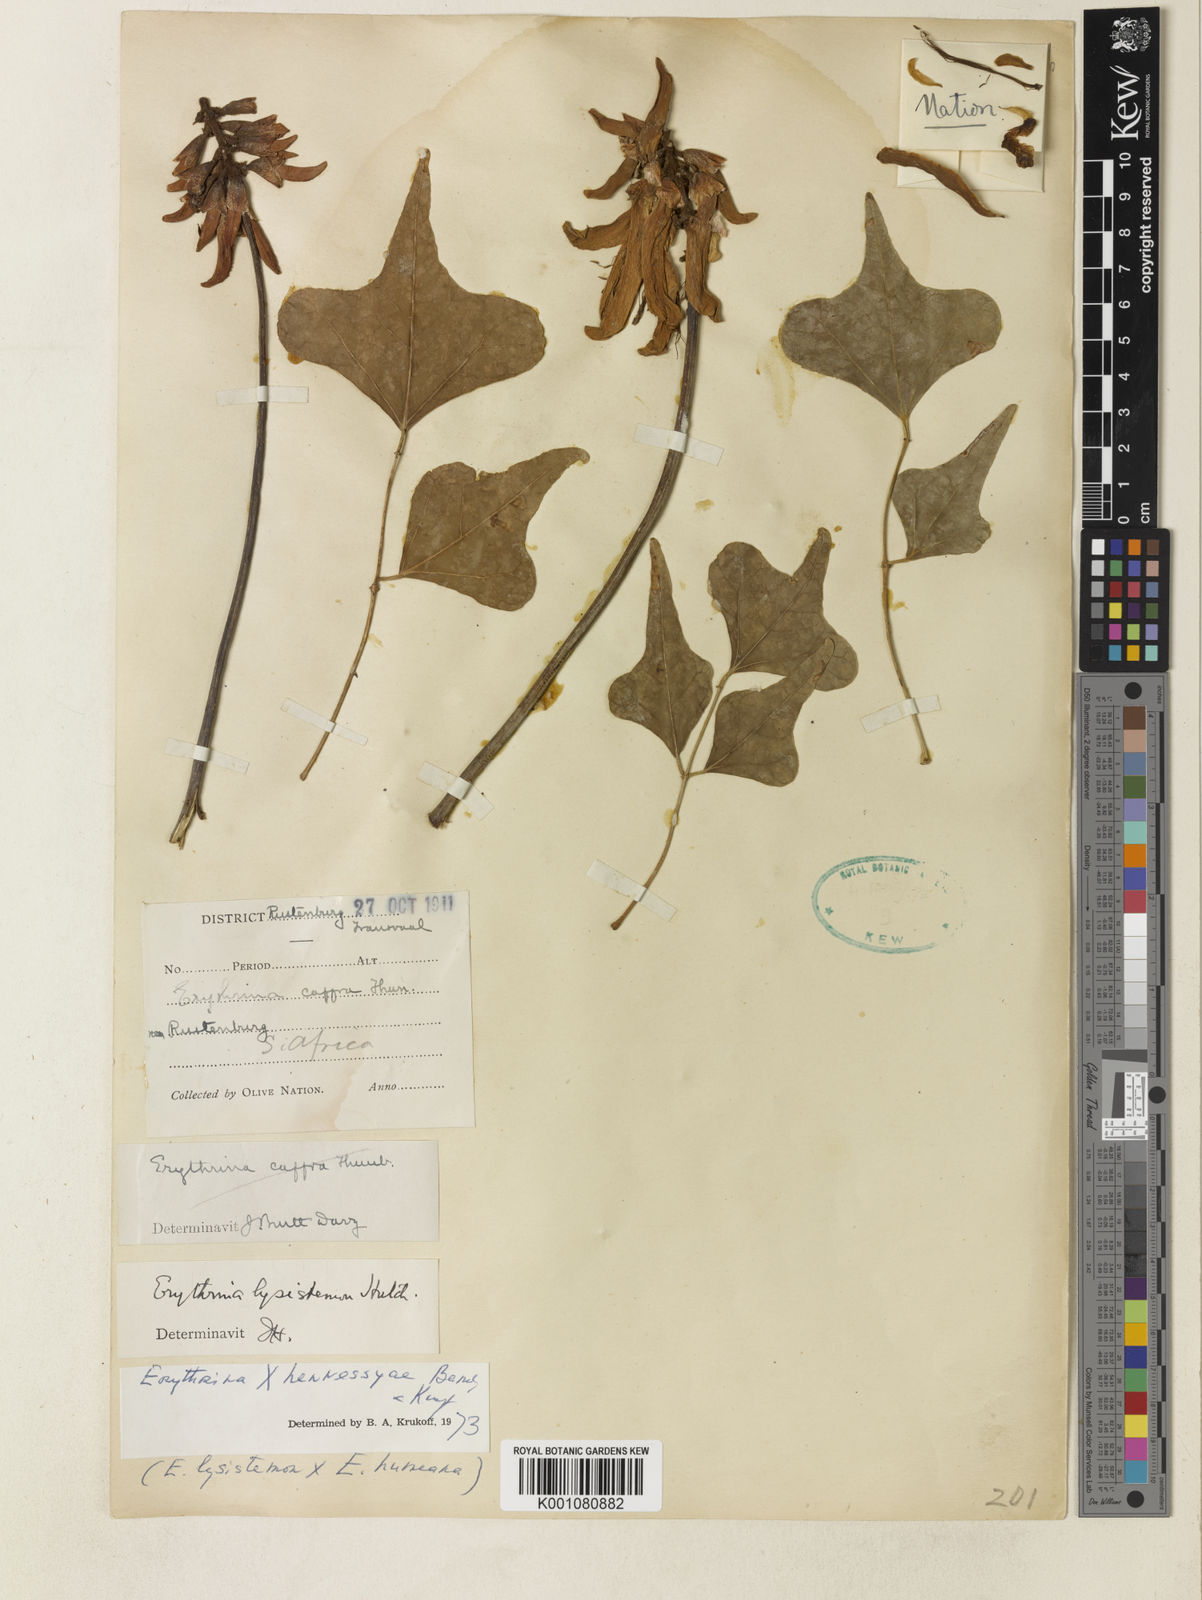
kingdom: Plantae
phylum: Tracheophyta
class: Magnoliopsida
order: Fabales
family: Fabaceae
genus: Erythrina
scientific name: Erythrina hennessyae
